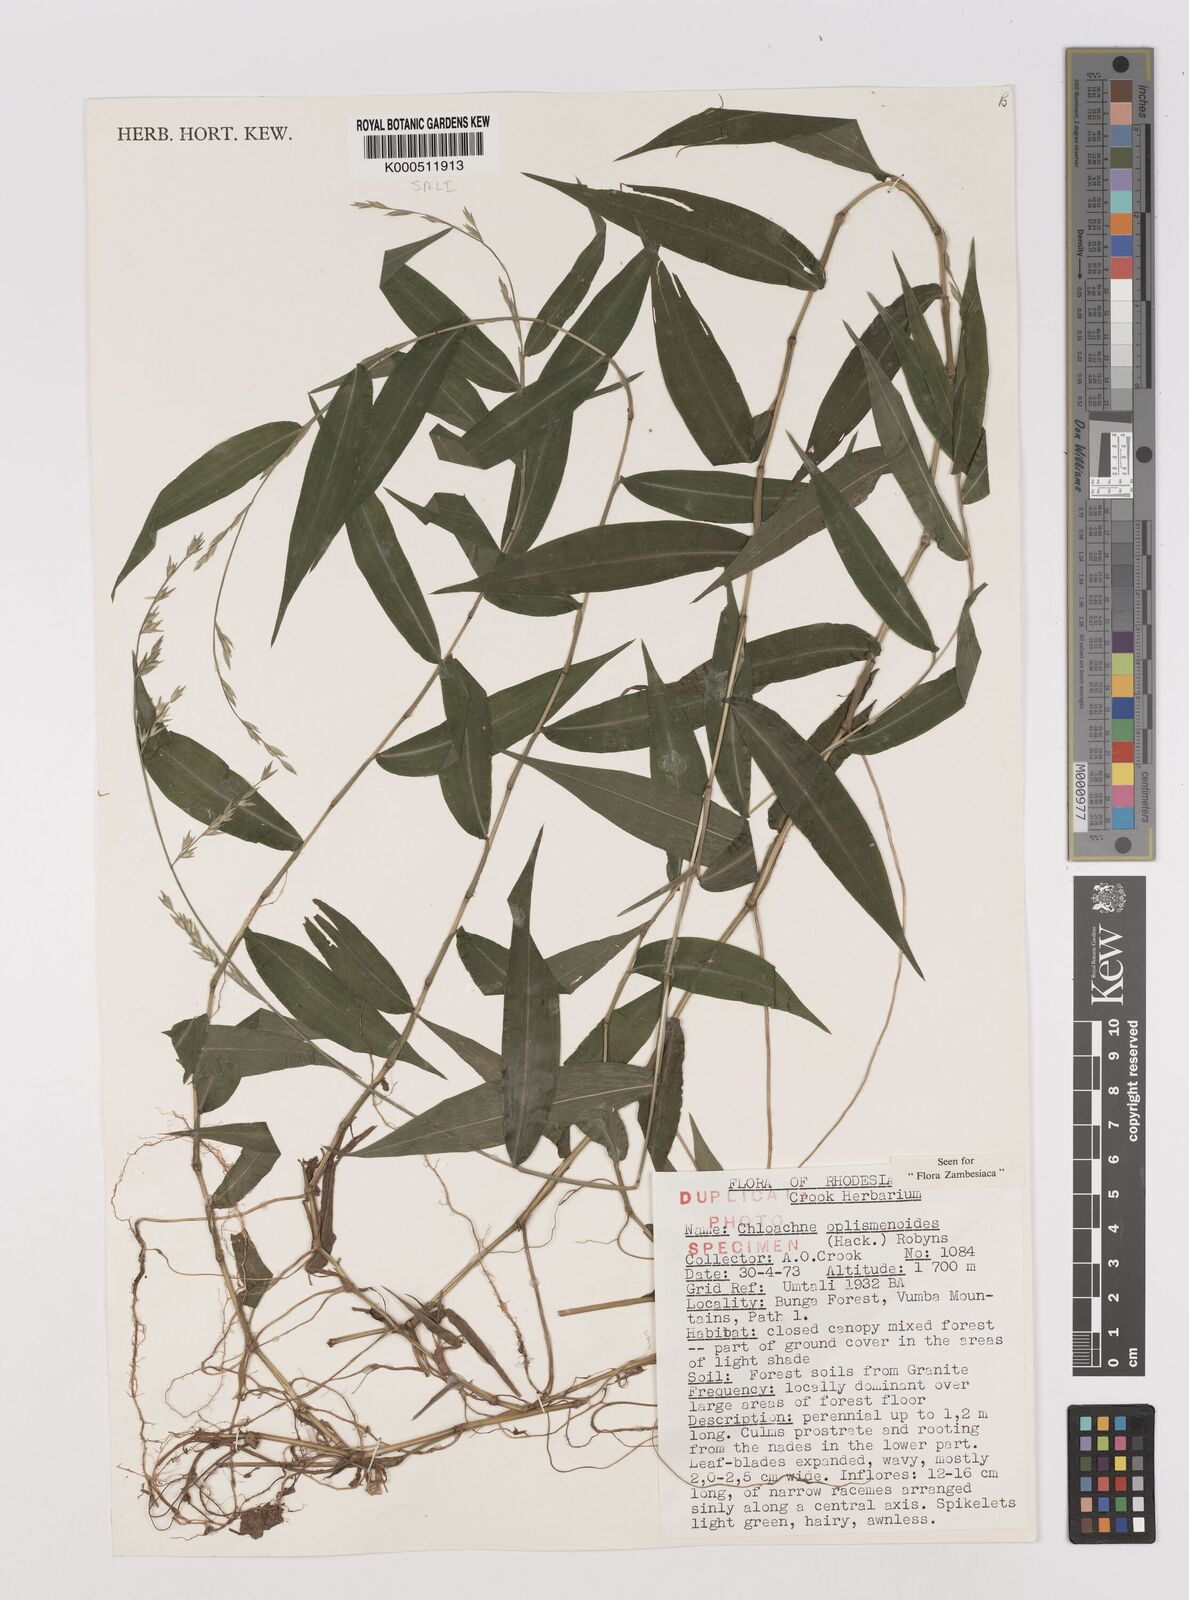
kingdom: Plantae
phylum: Tracheophyta
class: Liliopsida
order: Poales
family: Poaceae
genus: Poecilostachys
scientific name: Poecilostachys oplismenoides
